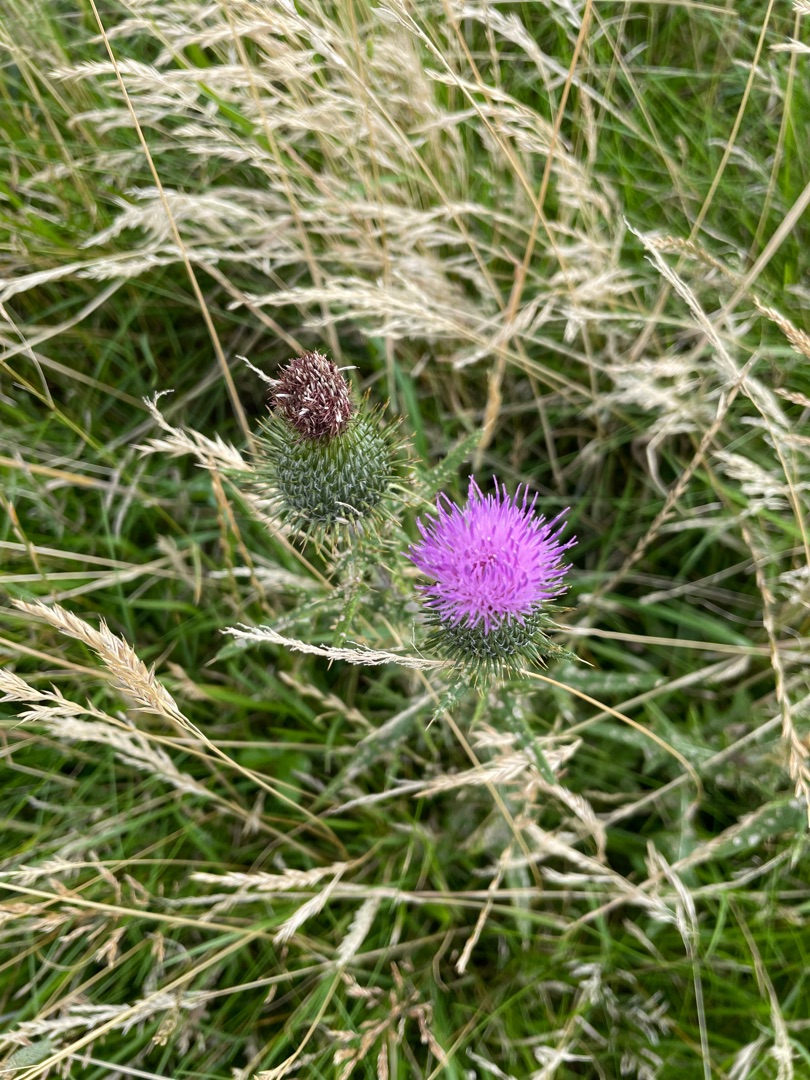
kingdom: Plantae
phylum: Tracheophyta
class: Magnoliopsida
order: Asterales
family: Asteraceae
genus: Cirsium
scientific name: Cirsium vulgare
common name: Horse-tidsel
